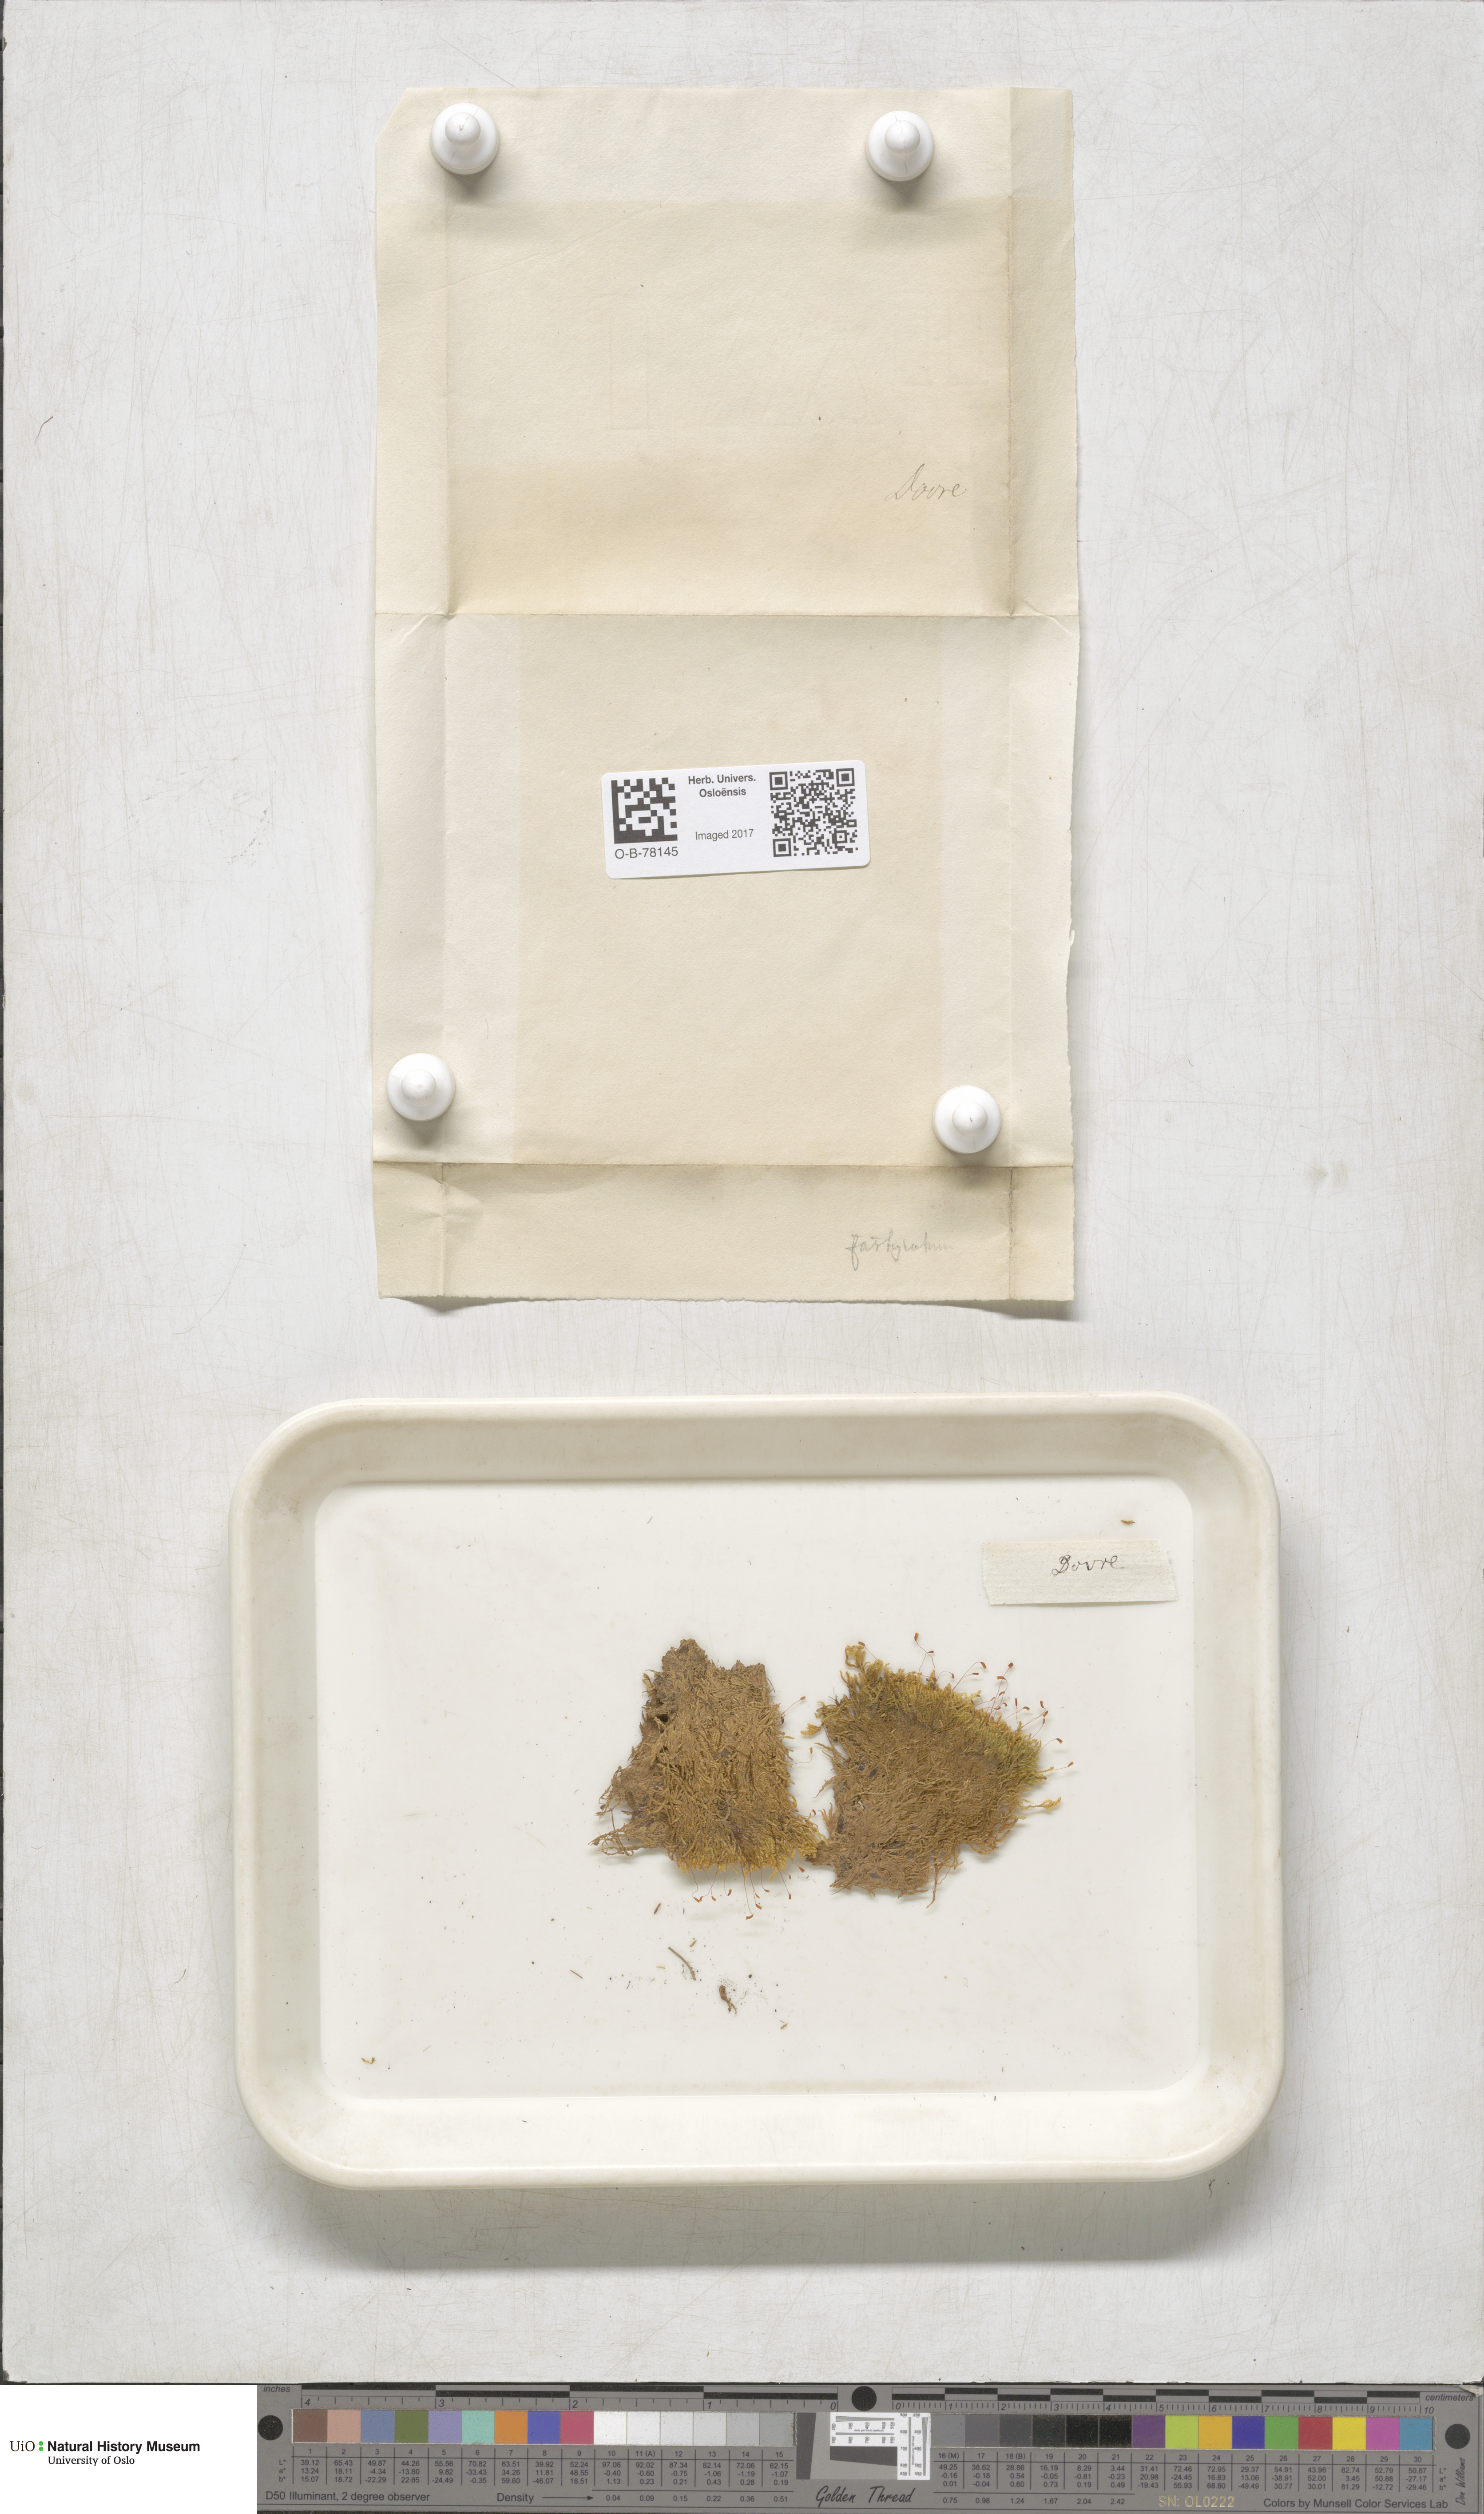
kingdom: Plantae
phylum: Bryophyta
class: Bryopsida
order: Hypnales
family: Amblystegiaceae
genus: Drepanium
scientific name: Drepanium fastigiatum
